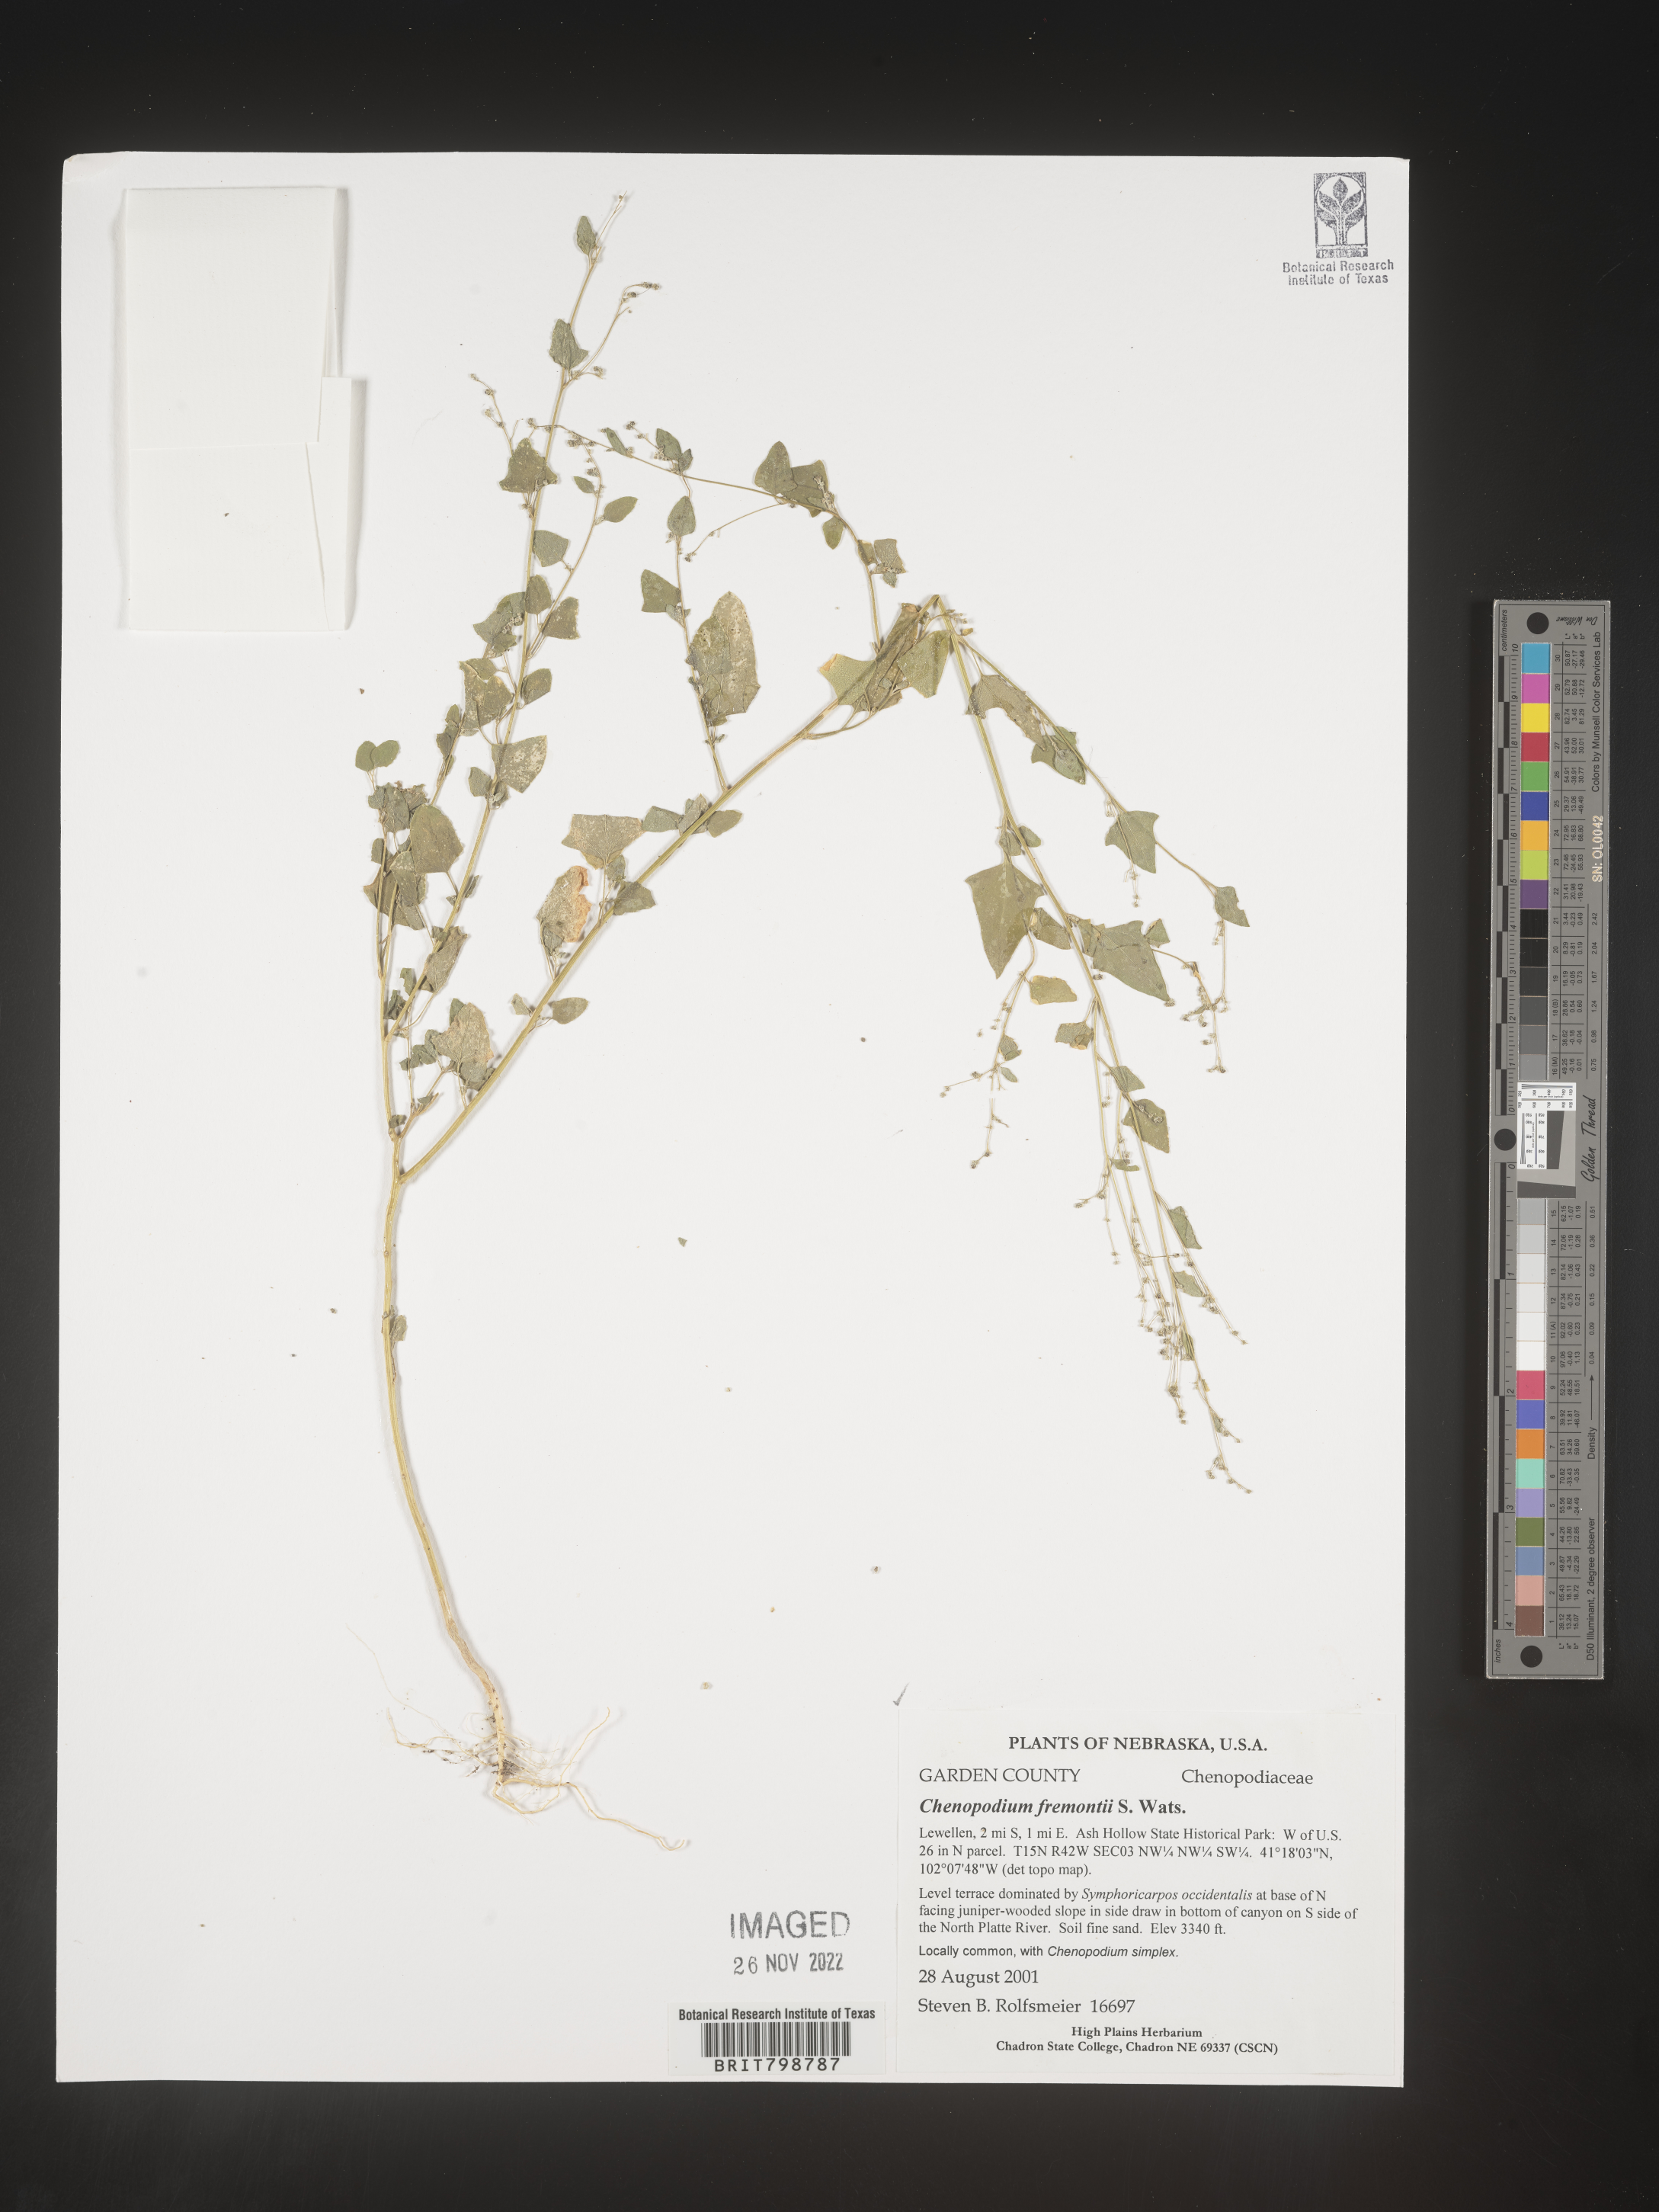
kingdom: Plantae
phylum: Tracheophyta
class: Magnoliopsida
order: Caryophyllales
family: Amaranthaceae
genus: Chenopodium
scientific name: Chenopodium fremontii
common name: Fremont's goosefoot
